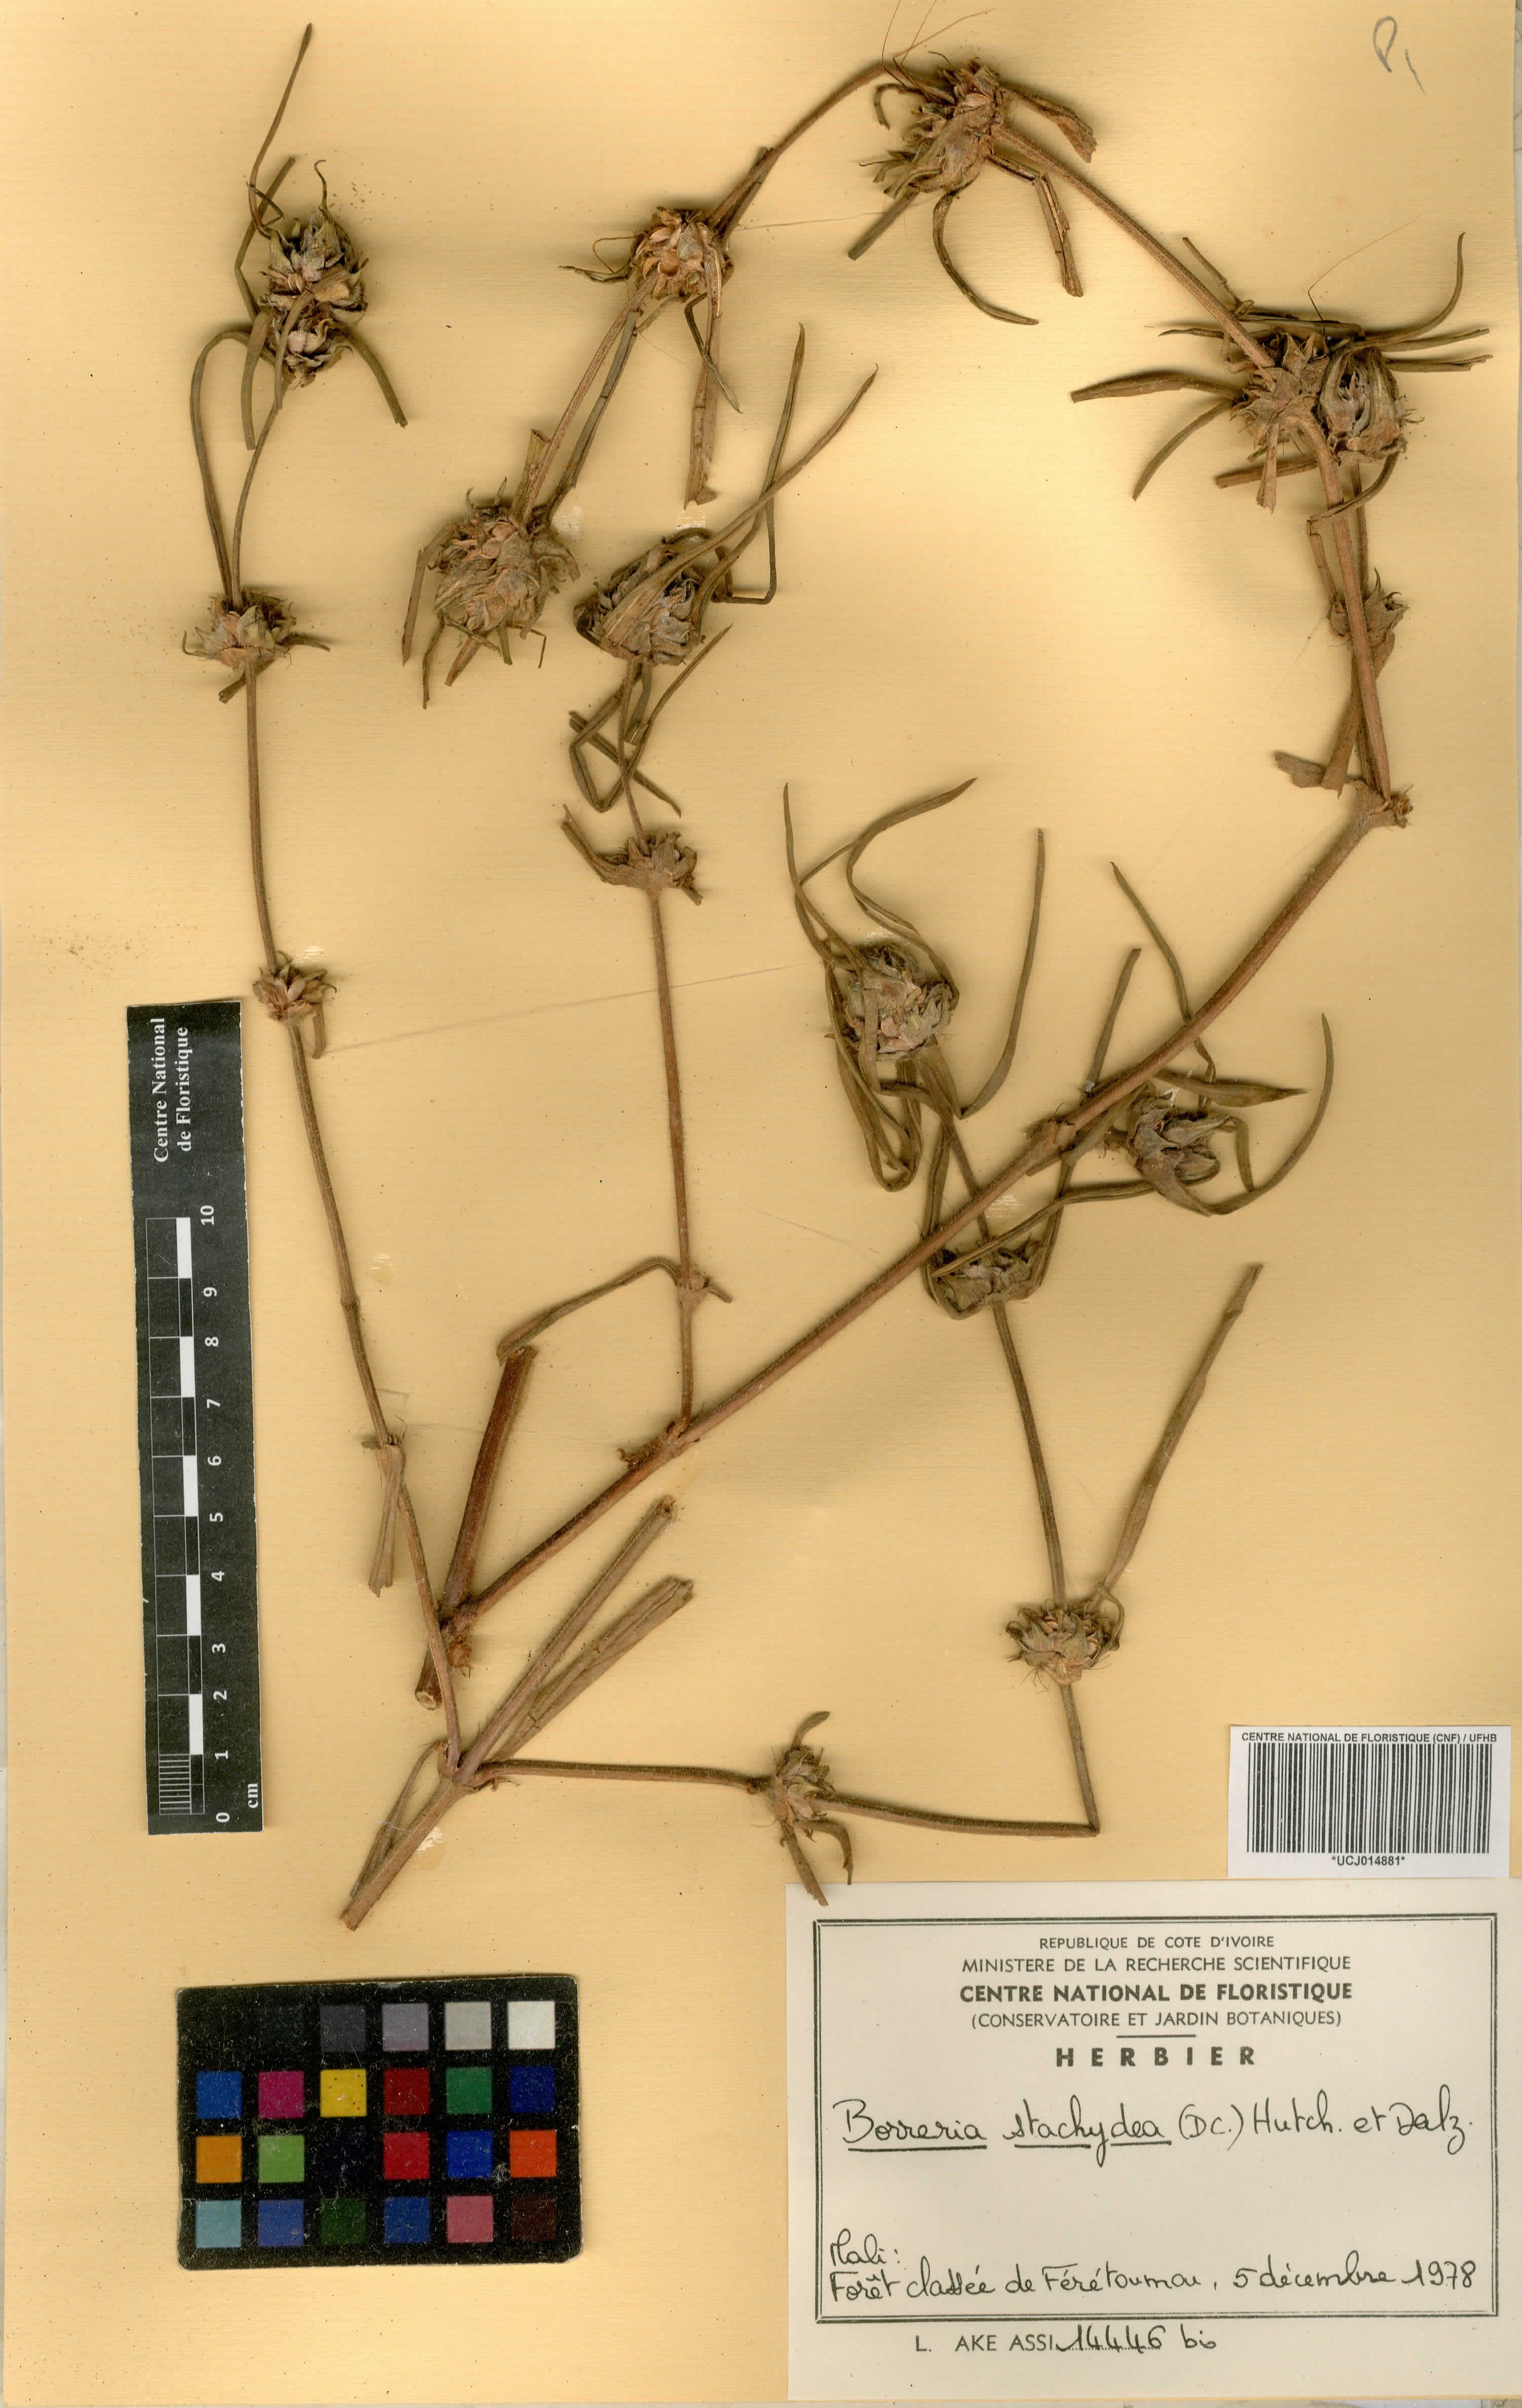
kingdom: Plantae
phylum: Tracheophyta
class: Magnoliopsida
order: Gentianales
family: Rubiaceae
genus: Spermacoce
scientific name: Spermacoce stachydea
